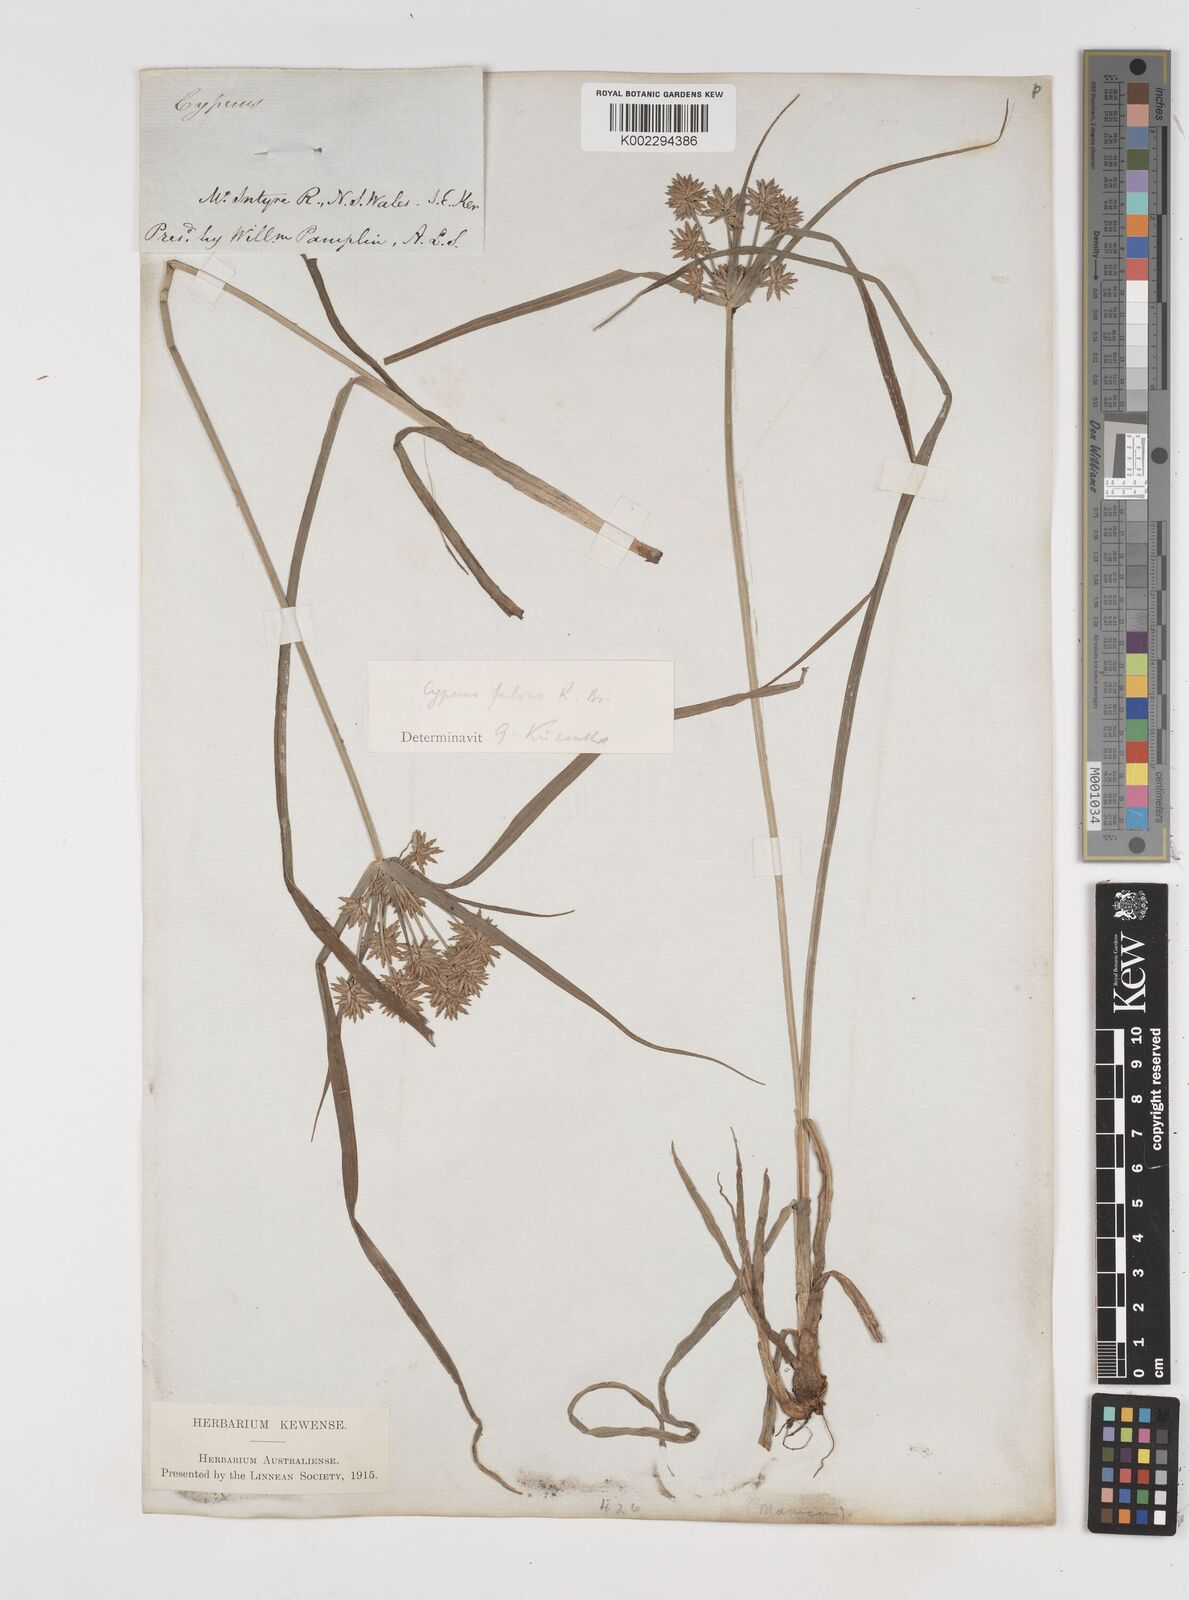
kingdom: Plantae
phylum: Tracheophyta
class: Liliopsida
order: Poales
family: Cyperaceae
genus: Cyperus
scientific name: Cyperus fulvus
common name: Sticky sedge
